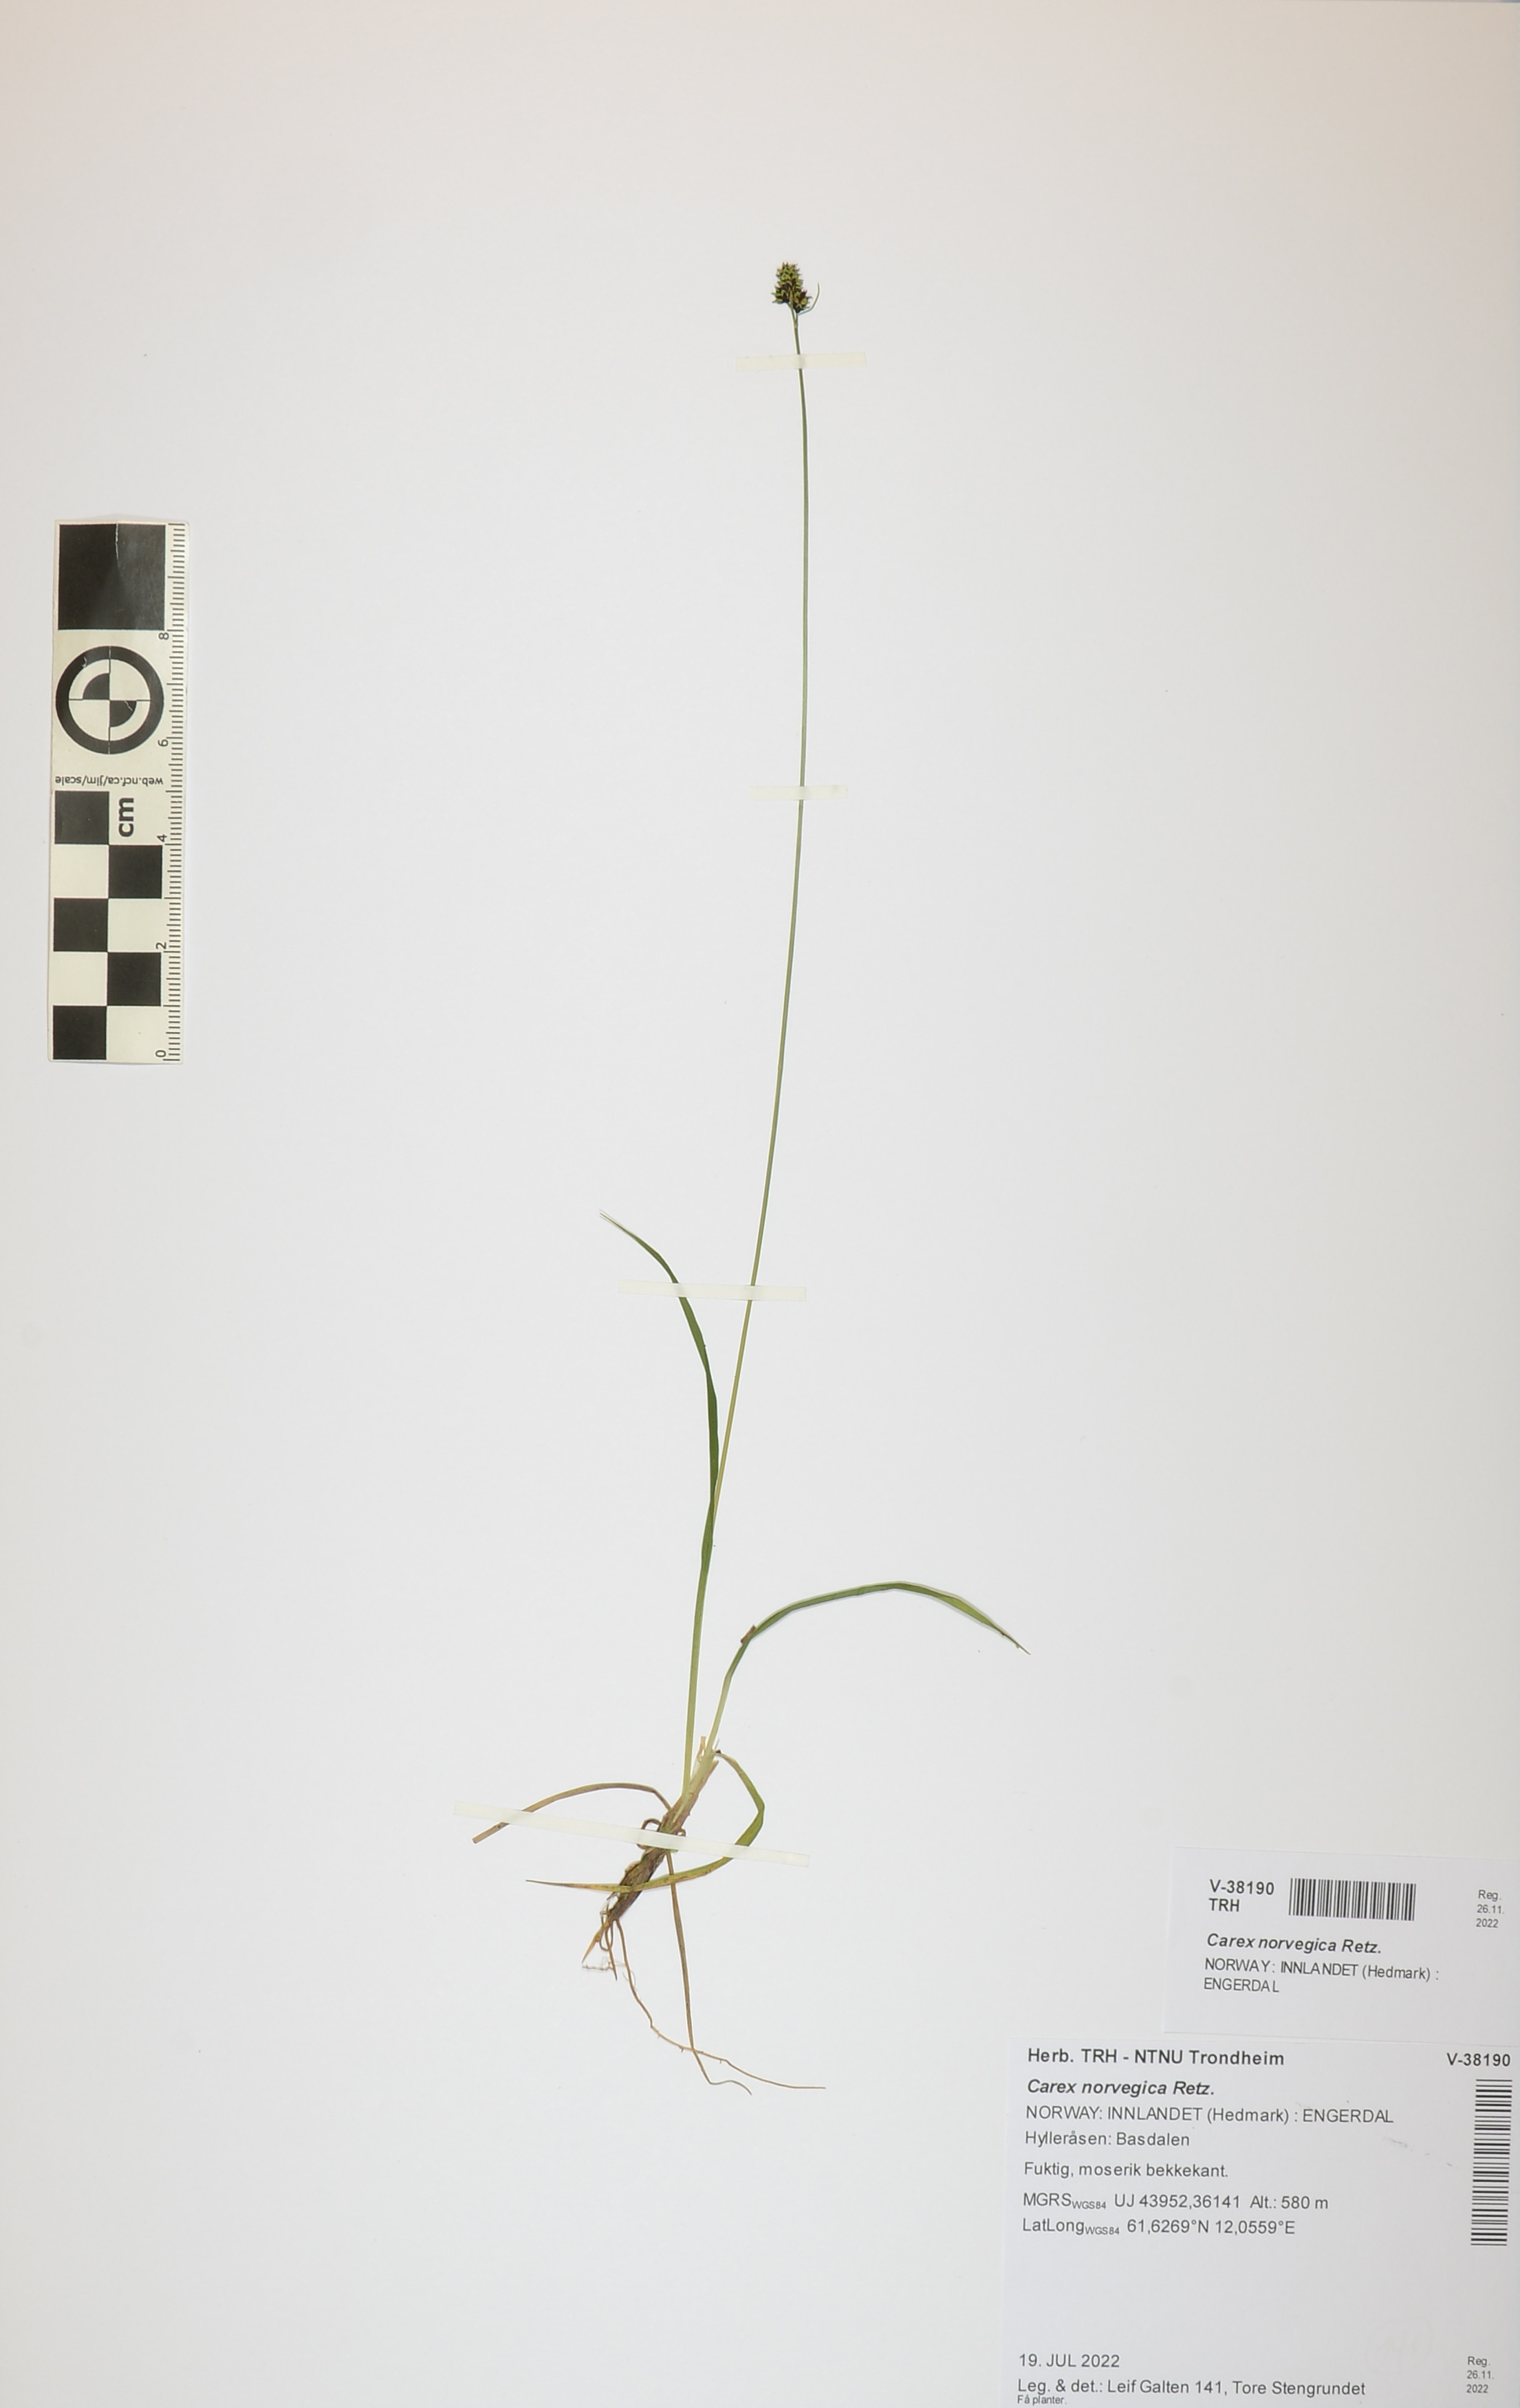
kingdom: Plantae
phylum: Tracheophyta
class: Liliopsida
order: Poales
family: Cyperaceae
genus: Carex
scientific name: Carex norvegica
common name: Close-headed alpine-sedge
